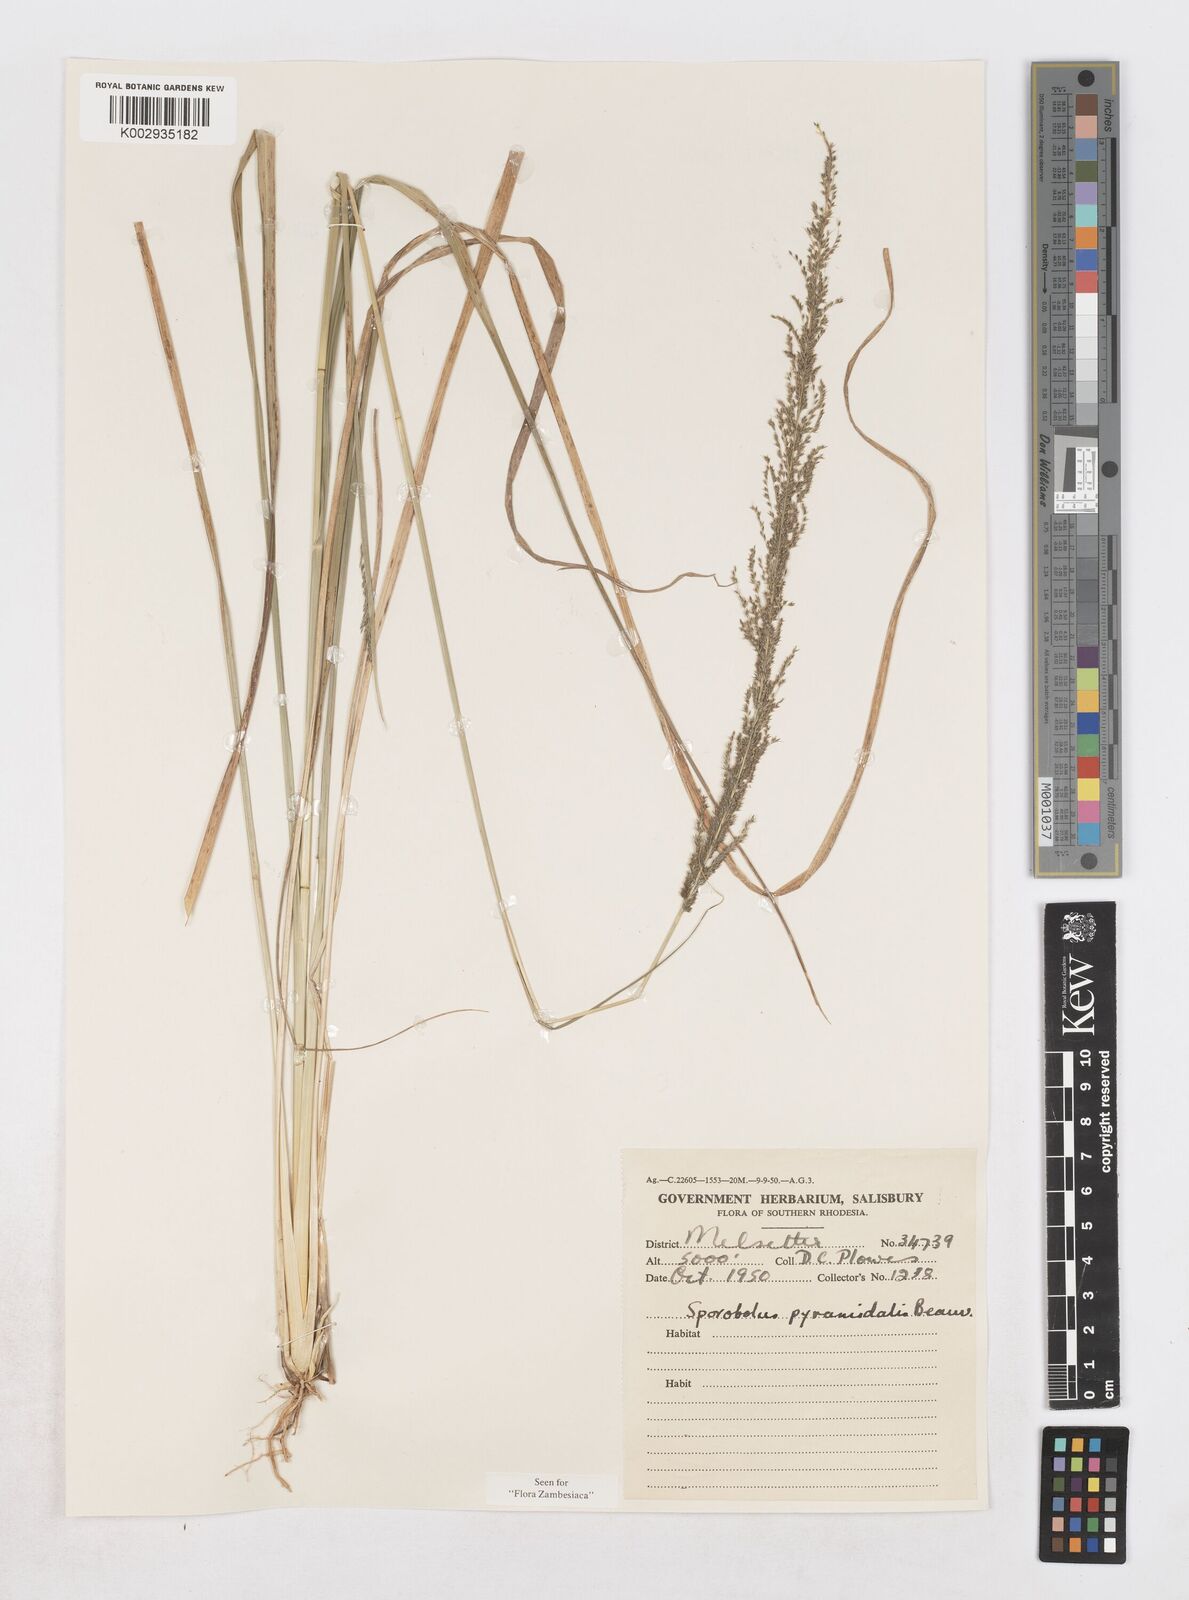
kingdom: Plantae
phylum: Tracheophyta
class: Liliopsida
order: Poales
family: Poaceae
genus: Sporobolus
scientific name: Sporobolus pyramidalis
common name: West indian dropseed
